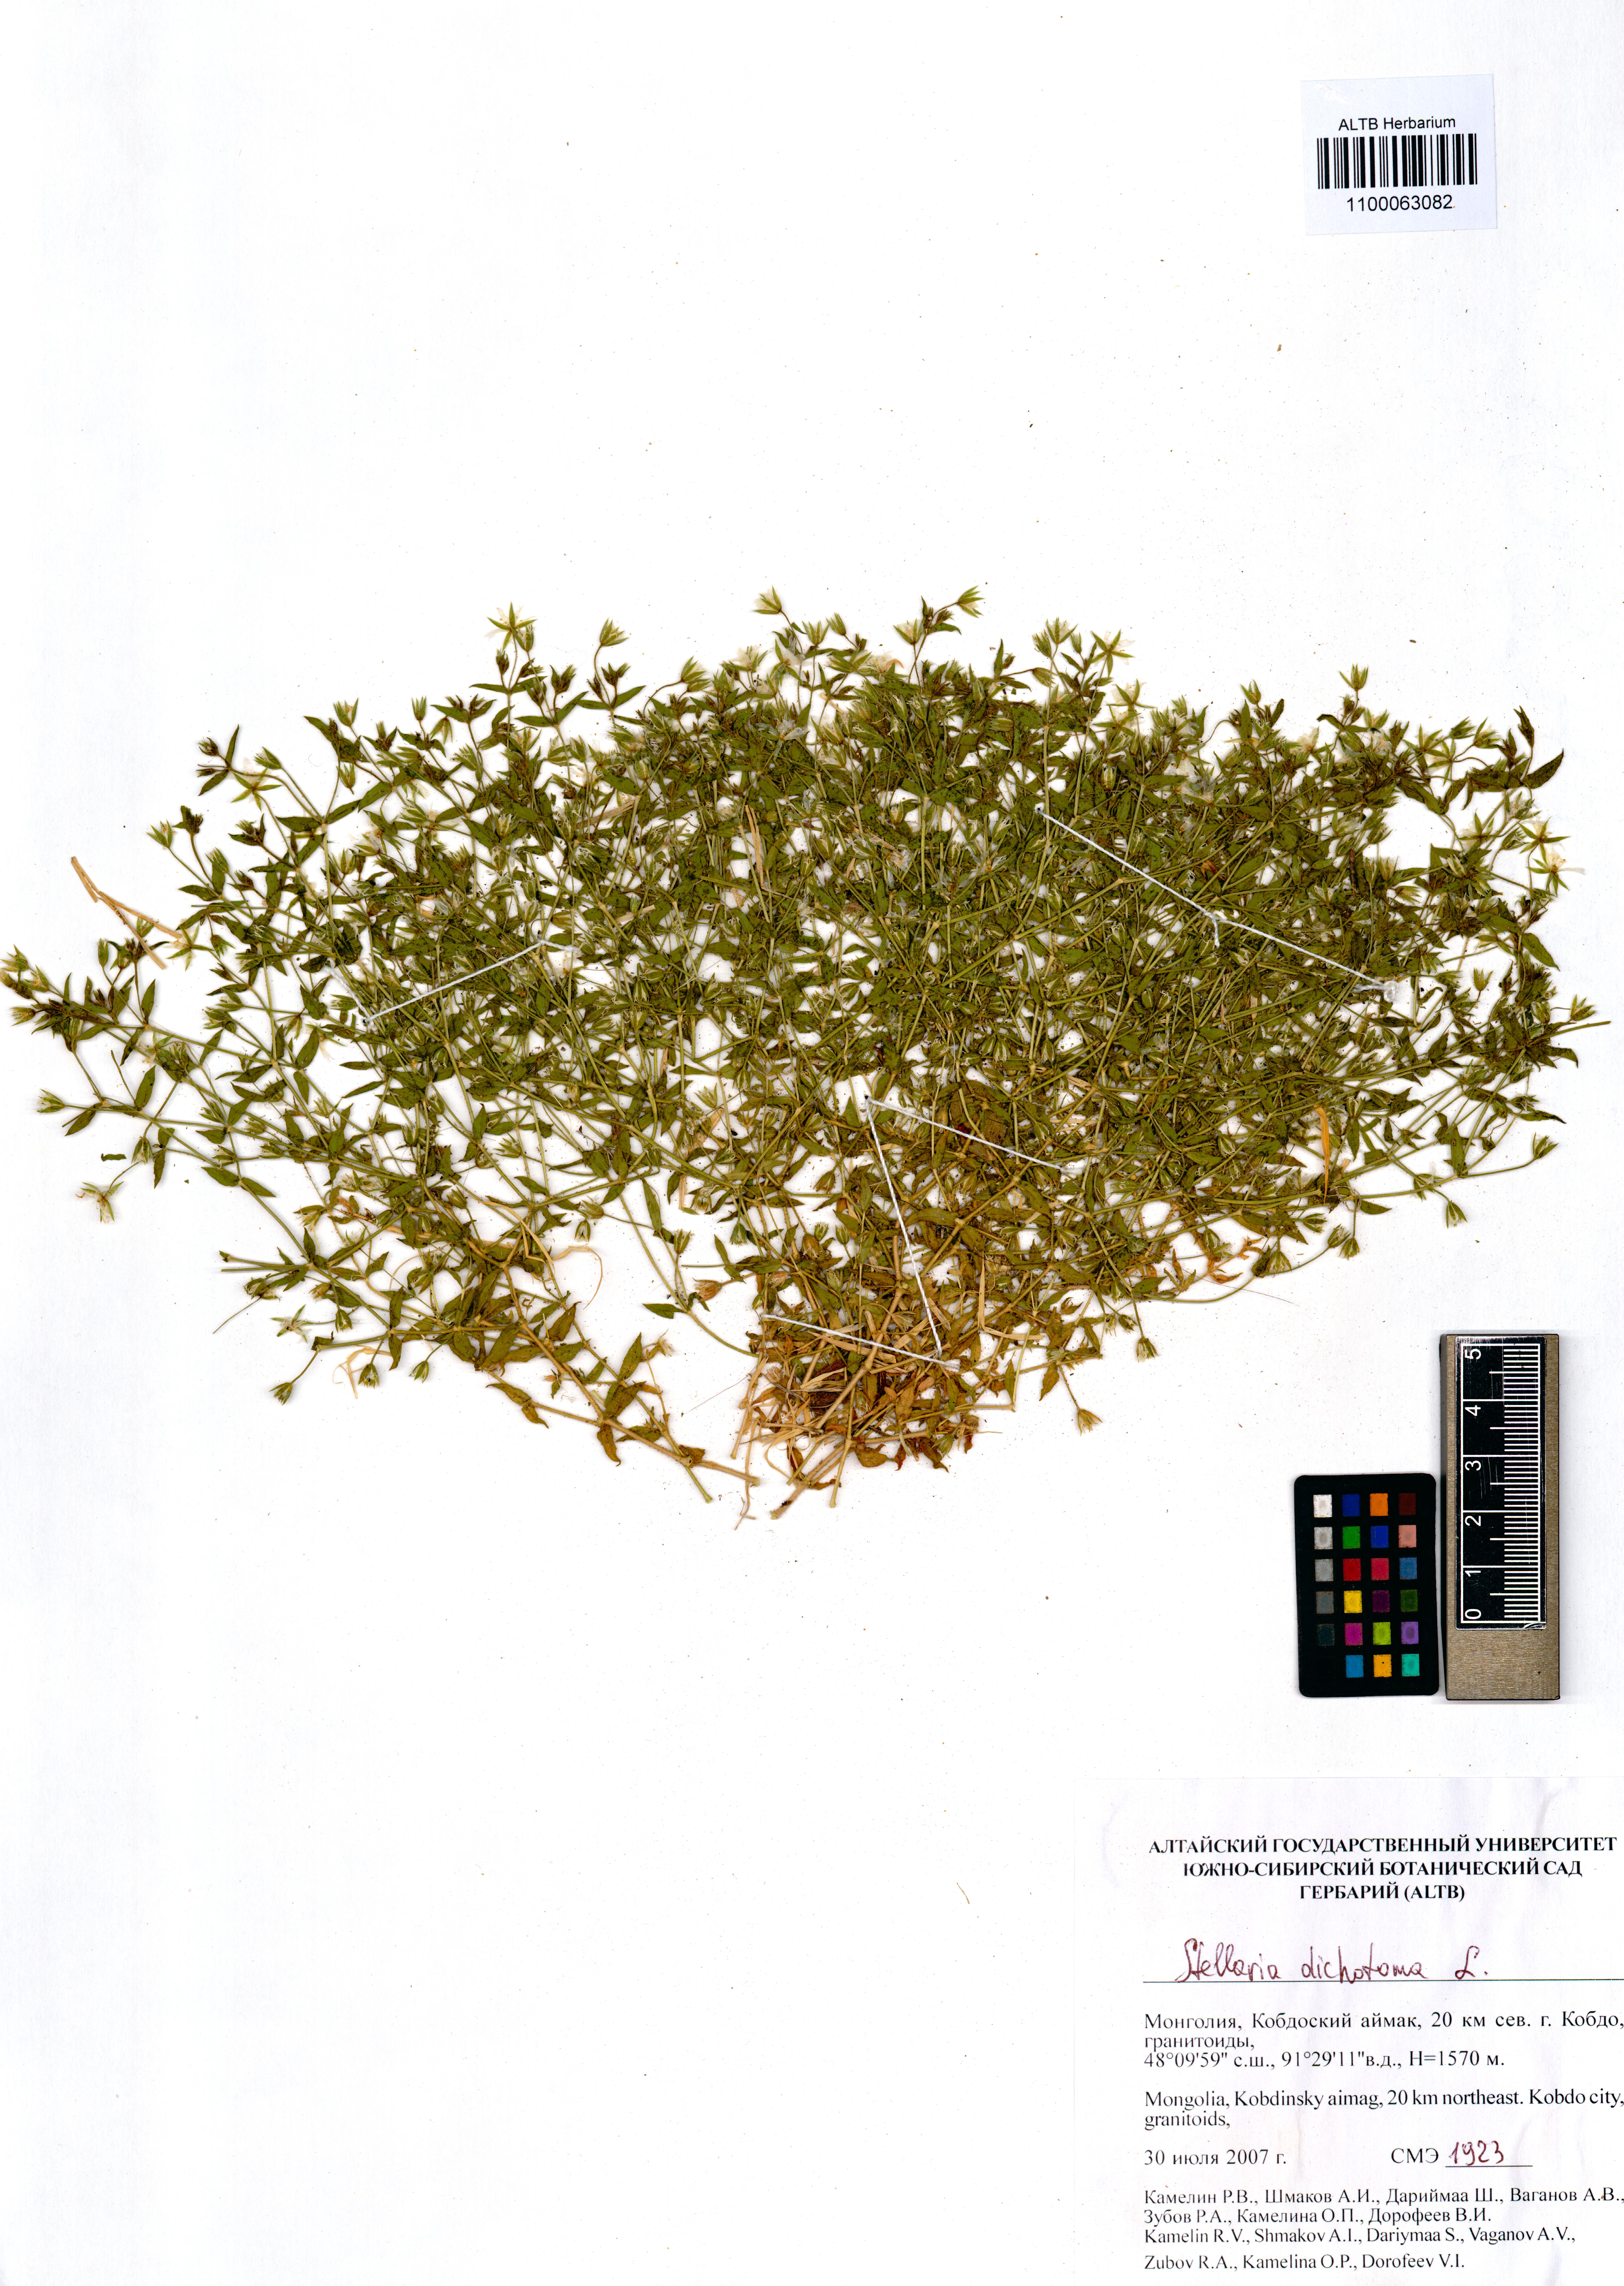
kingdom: Plantae
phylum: Tracheophyta
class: Magnoliopsida
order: Caryophyllales
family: Caryophyllaceae
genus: Mesostemma
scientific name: Mesostemma dichotomum
